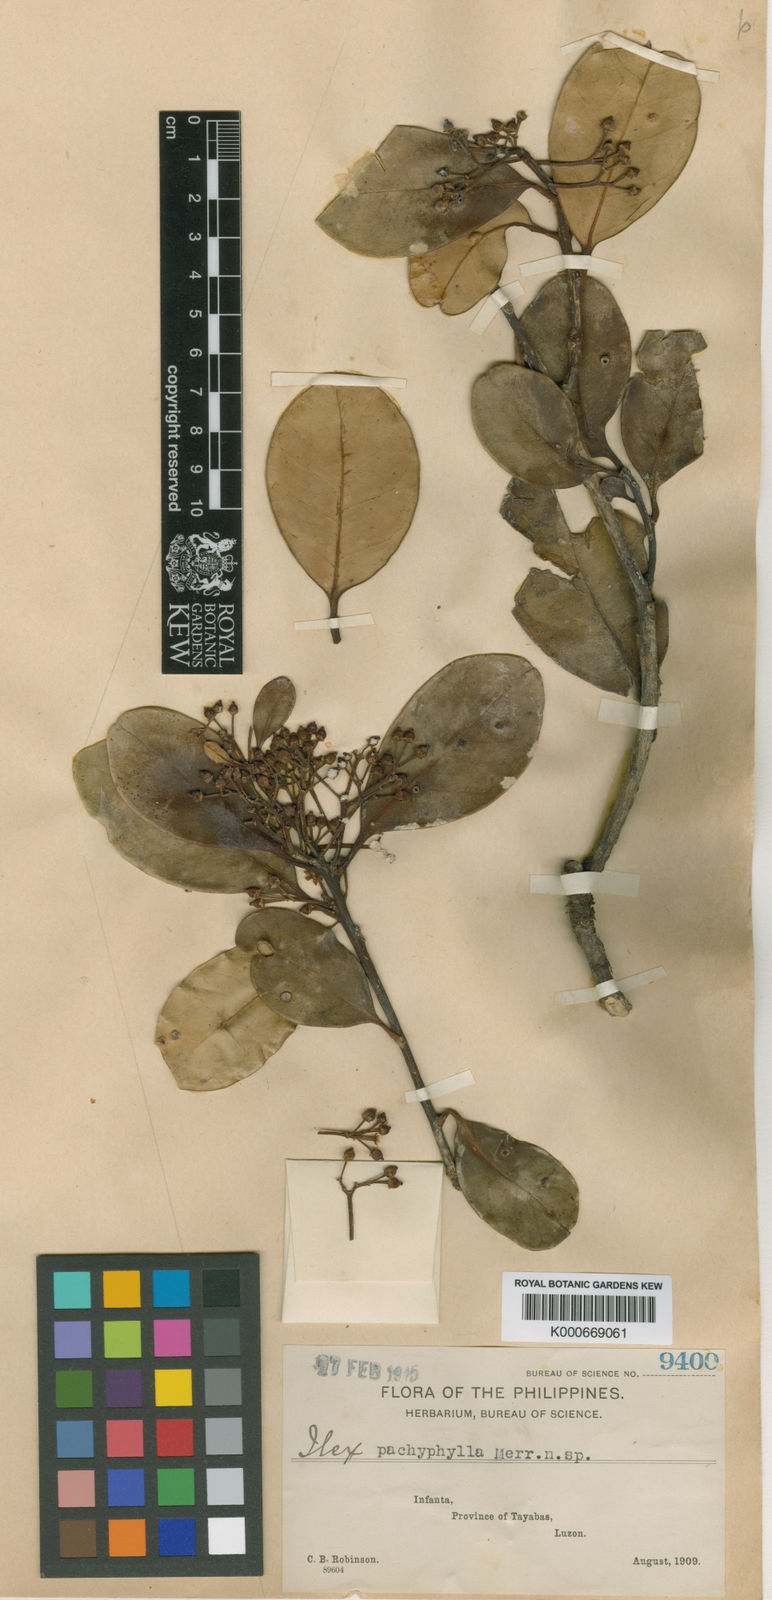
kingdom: Plantae
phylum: Tracheophyta
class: Magnoliopsida
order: Aquifoliales
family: Aquifoliaceae
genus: Ilex
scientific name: Ilex pachyphylla
